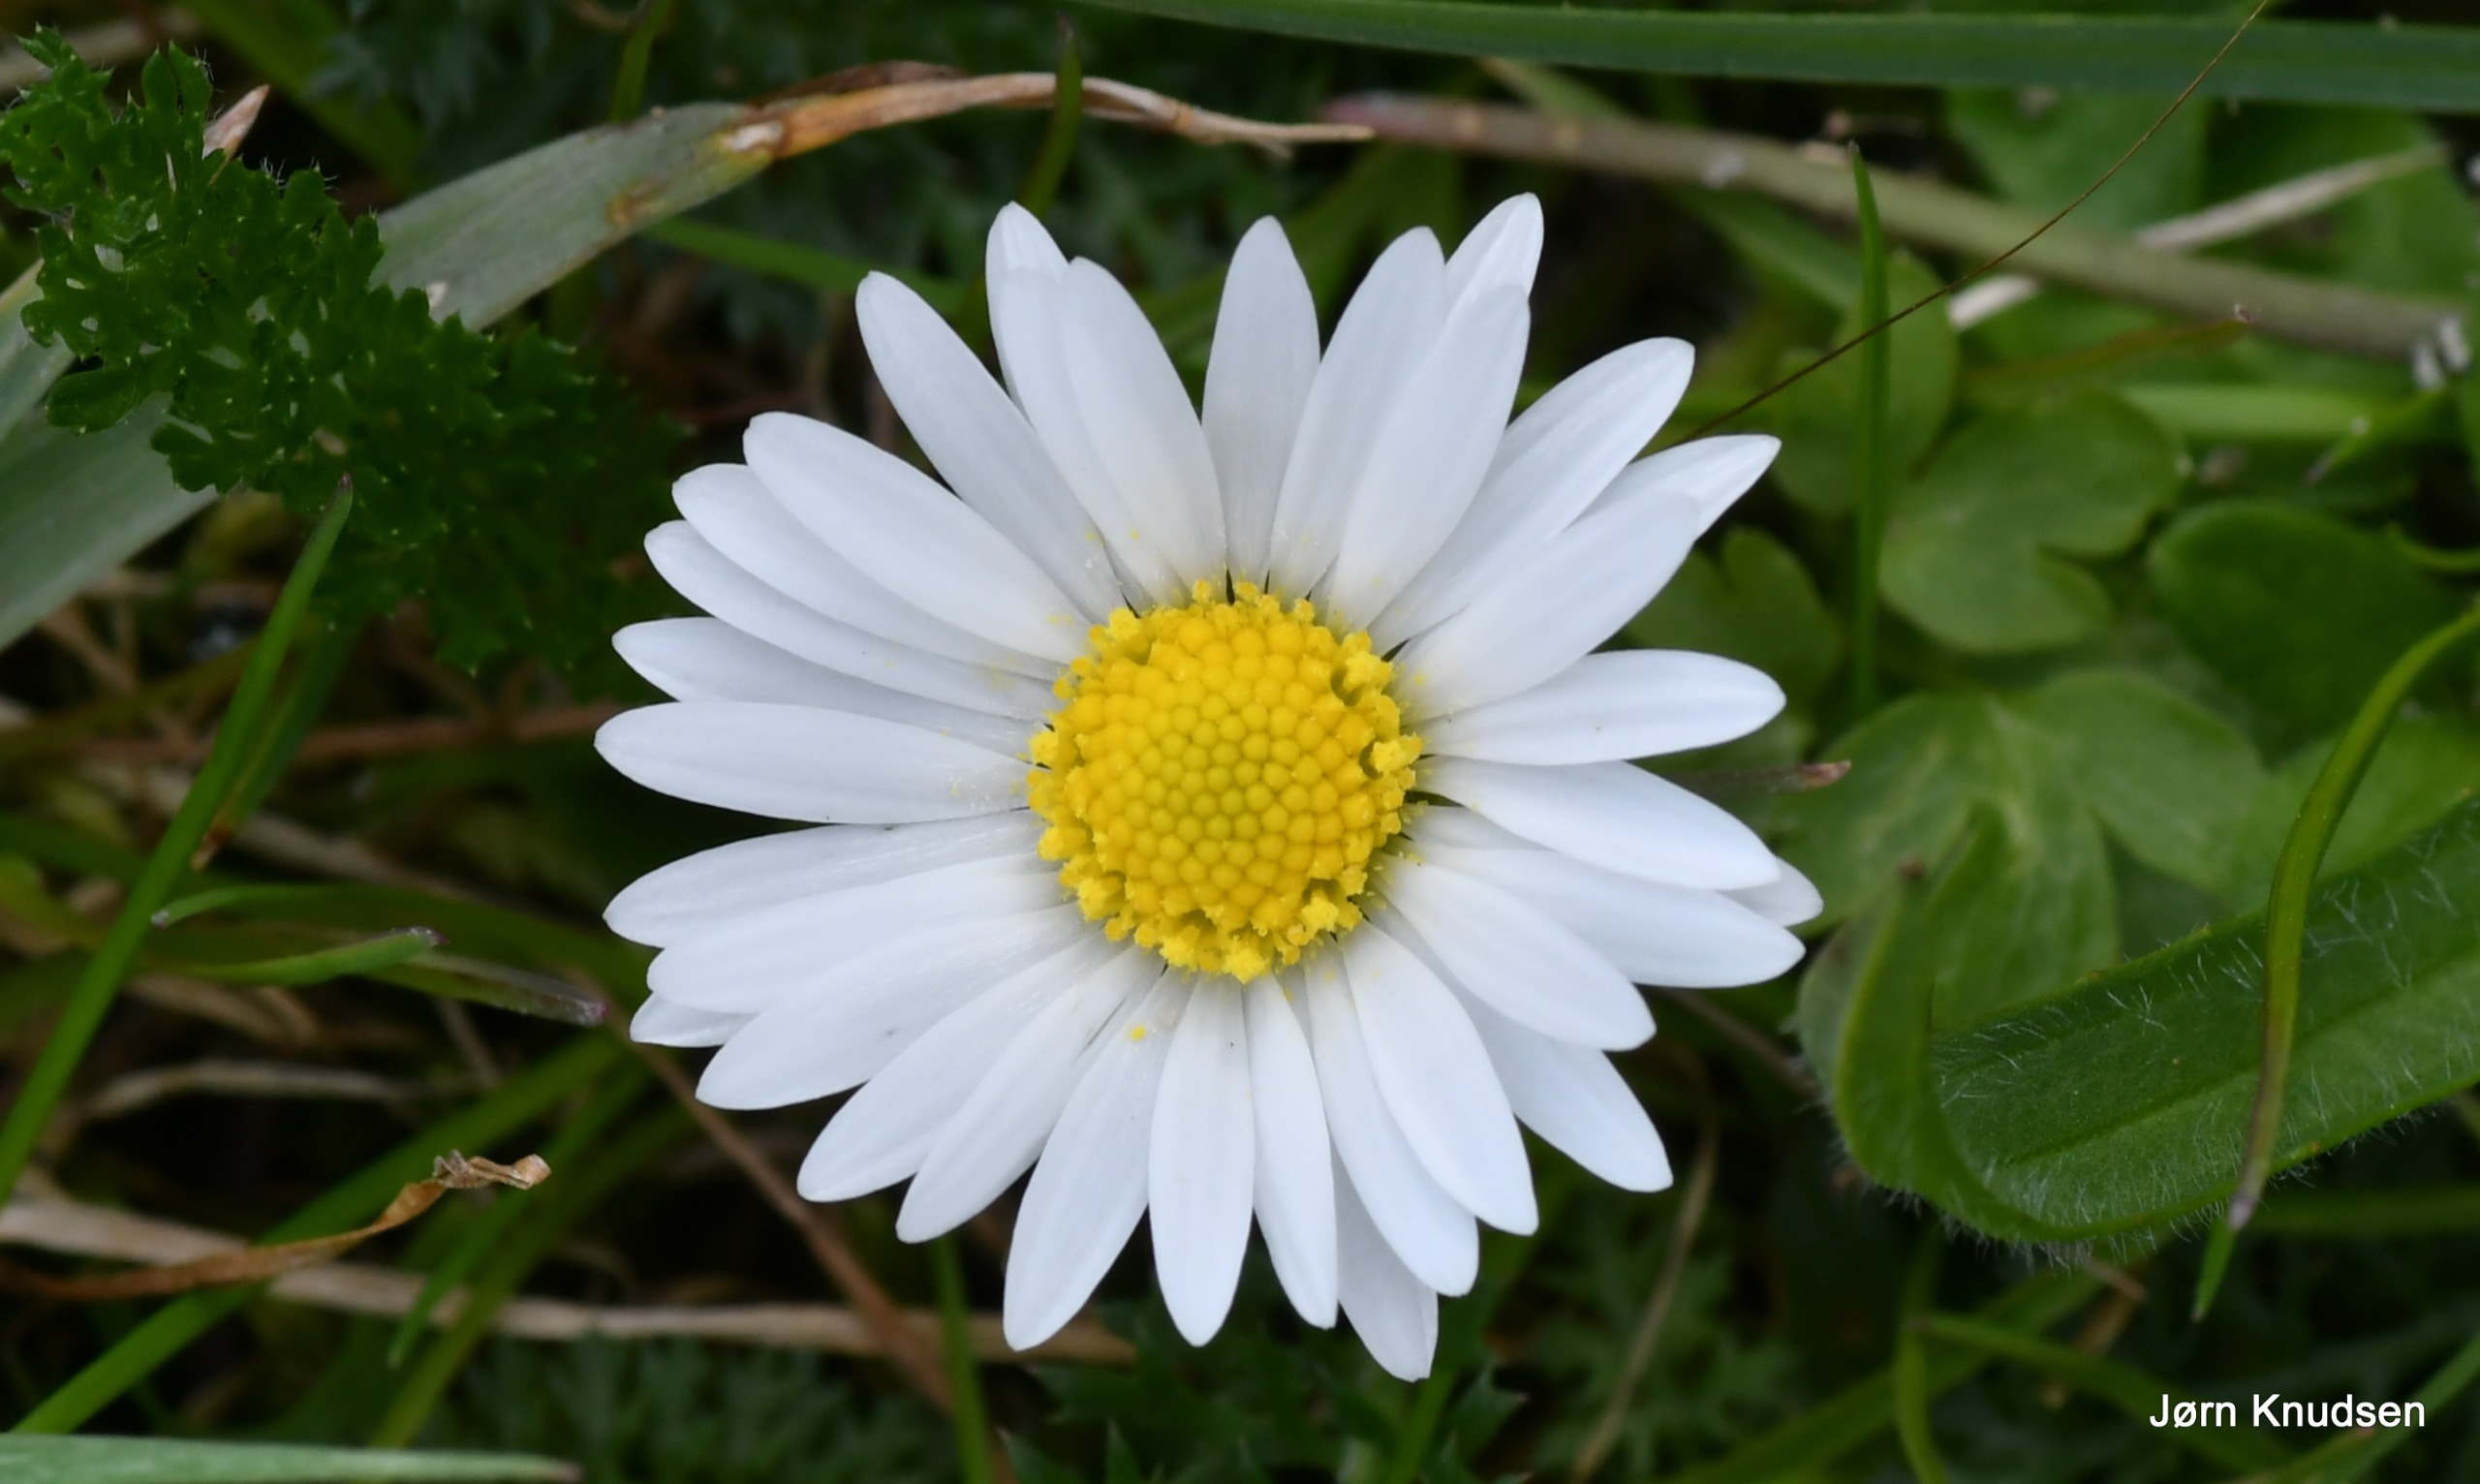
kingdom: Plantae
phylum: Tracheophyta
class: Magnoliopsida
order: Asterales
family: Asteraceae
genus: Bellis
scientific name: Bellis perennis
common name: Tusindfryd
